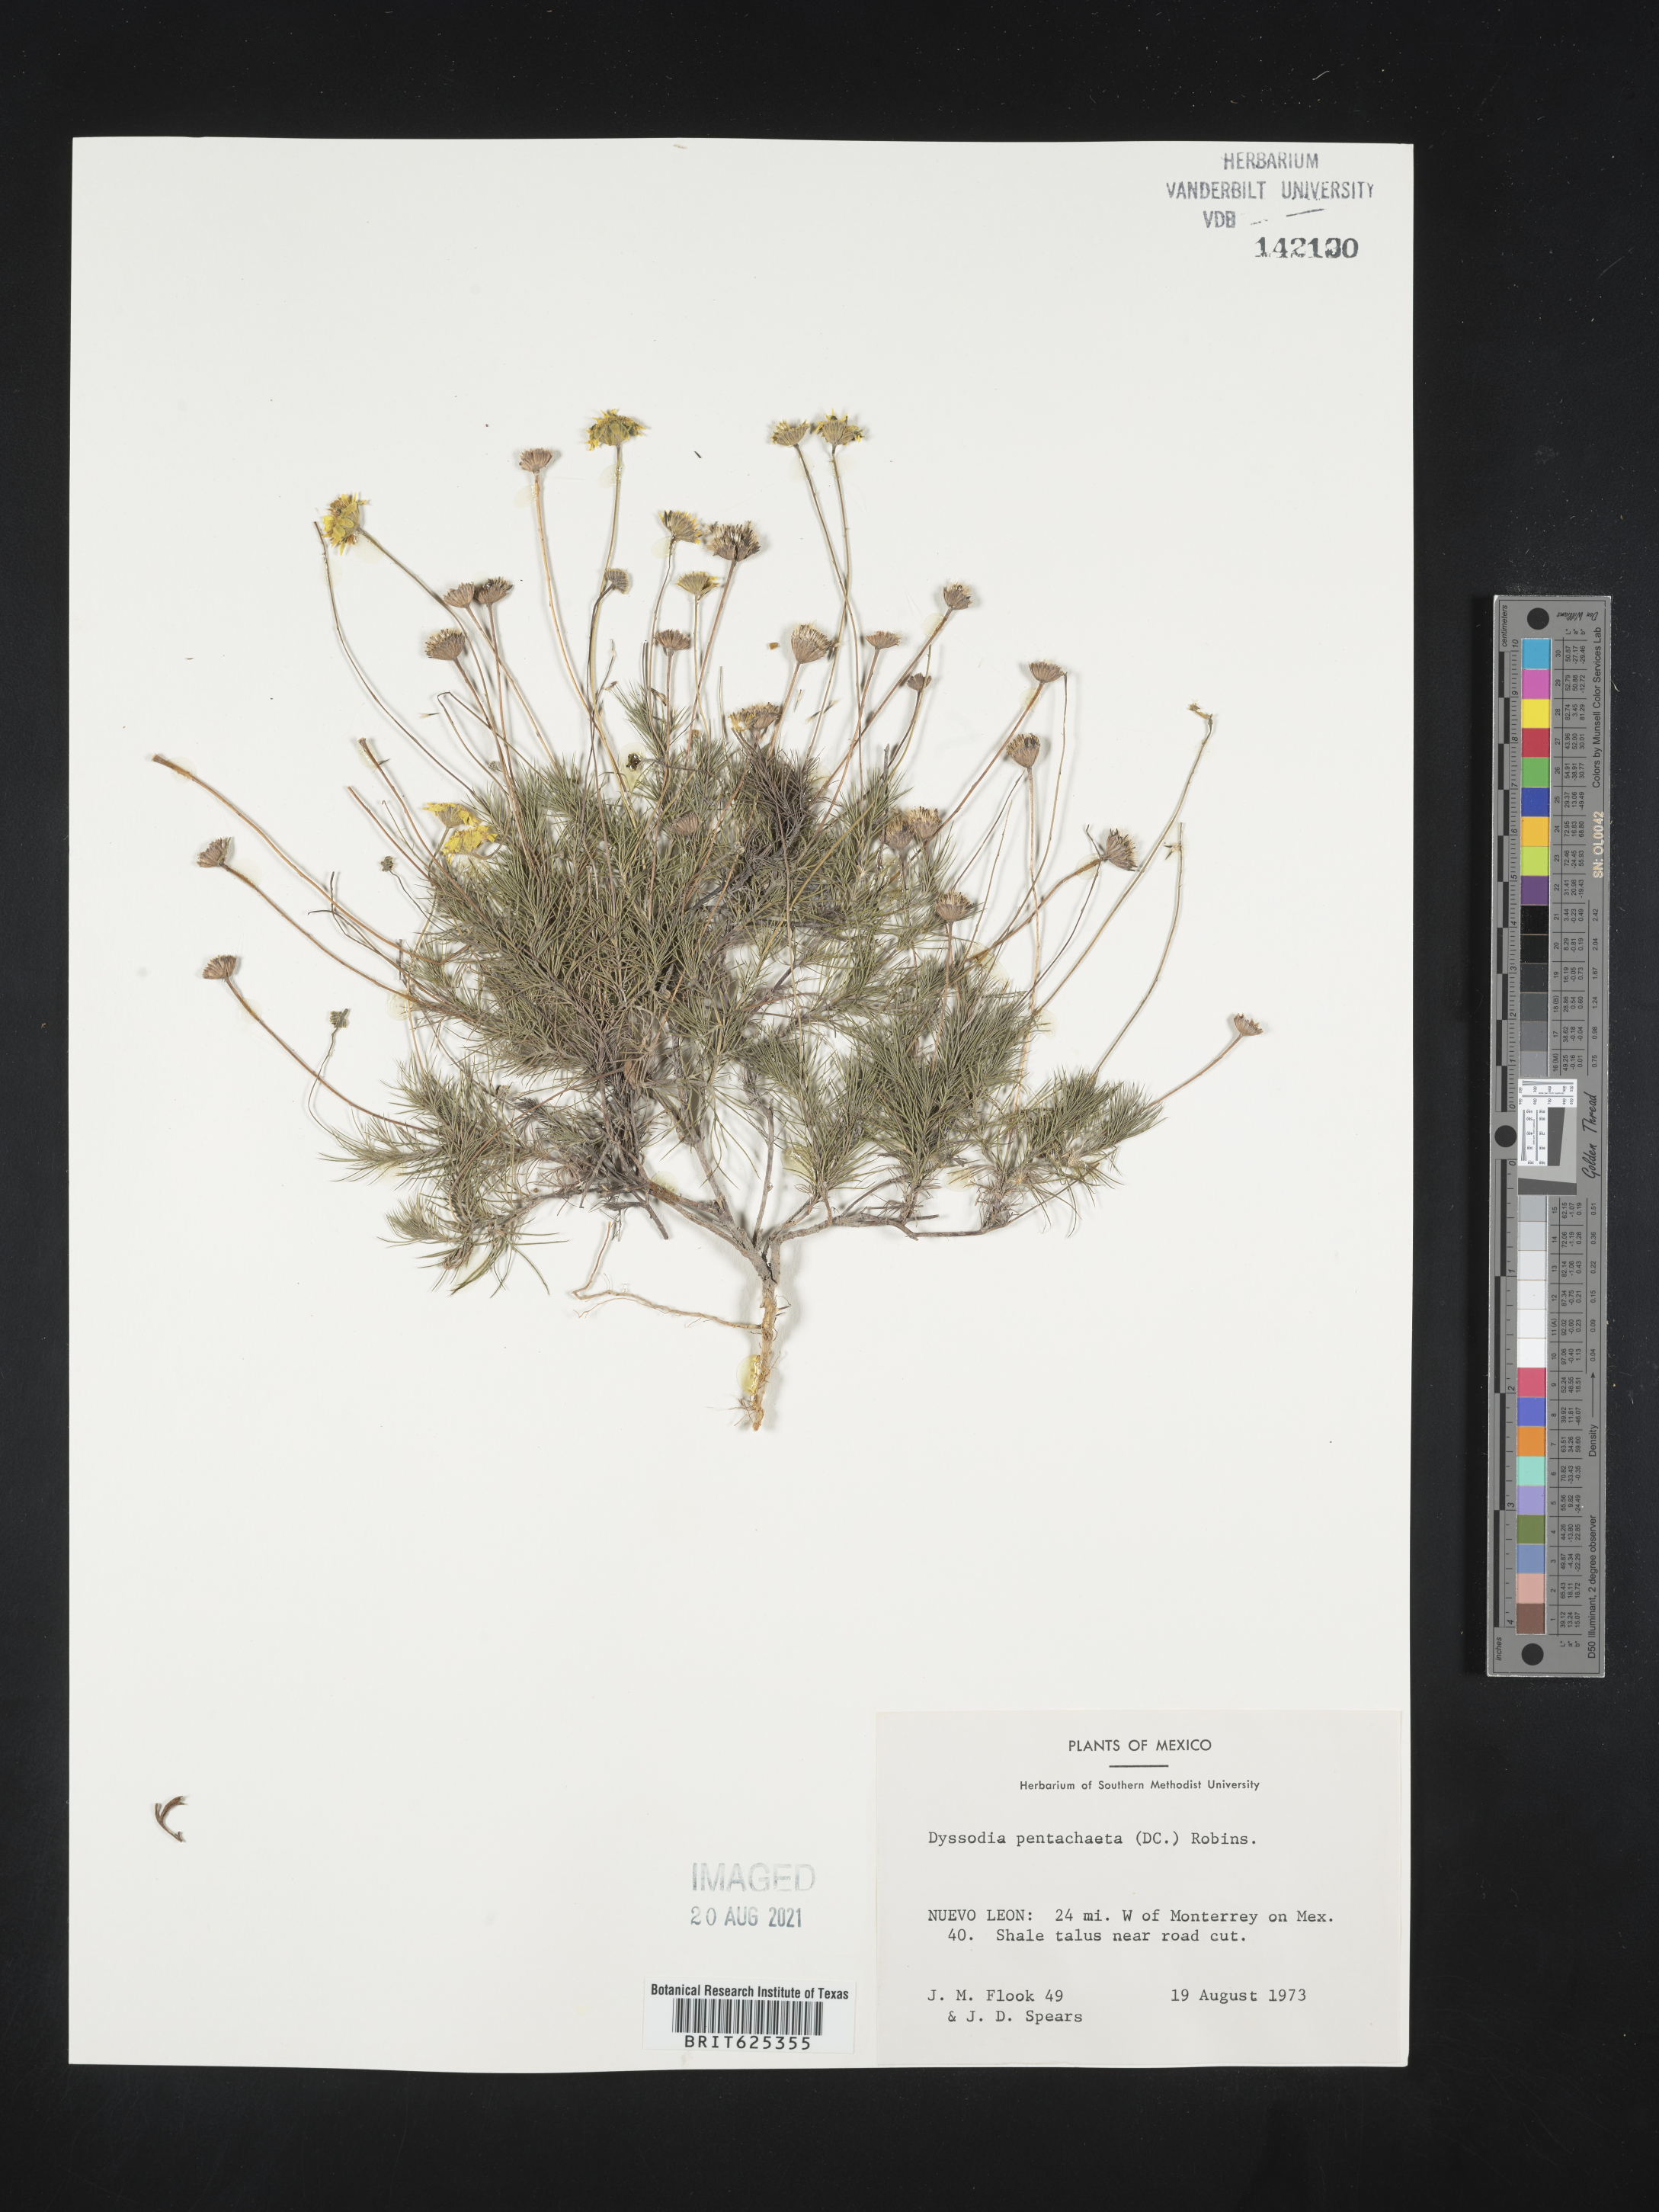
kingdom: Plantae
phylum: Tracheophyta
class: Magnoliopsida
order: Asterales
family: Asteraceae
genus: Dyssodia
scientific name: Dyssodia
